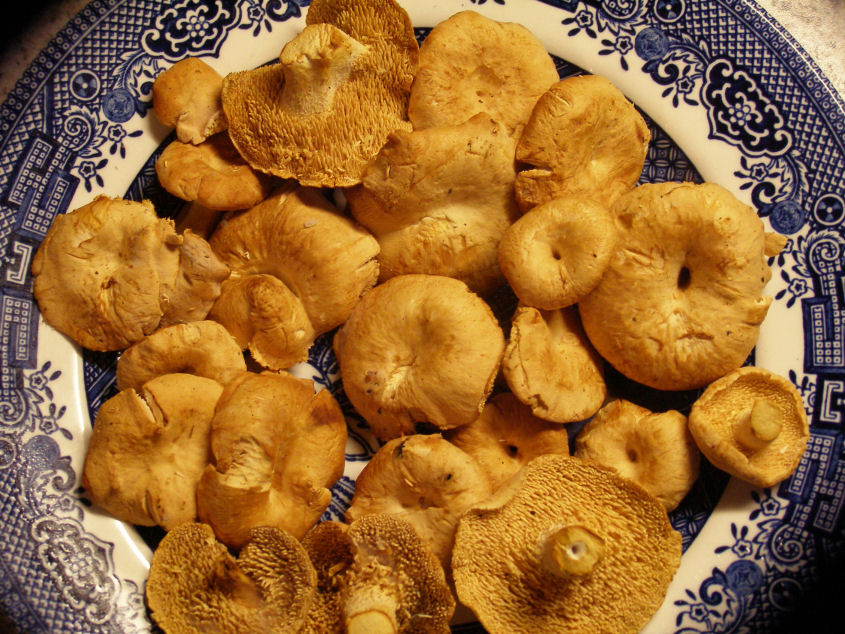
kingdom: Fungi
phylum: Basidiomycota
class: Agaricomycetes
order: Cantharellales
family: Hydnaceae
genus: Hydnum
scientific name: Hydnum rufescens
